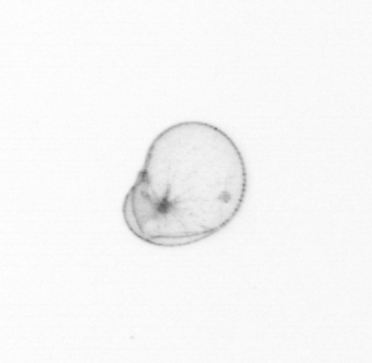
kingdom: Chromista
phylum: Myzozoa
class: Dinophyceae
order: Noctilucales
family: Noctilucaceae
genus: Noctiluca
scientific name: Noctiluca scintillans
